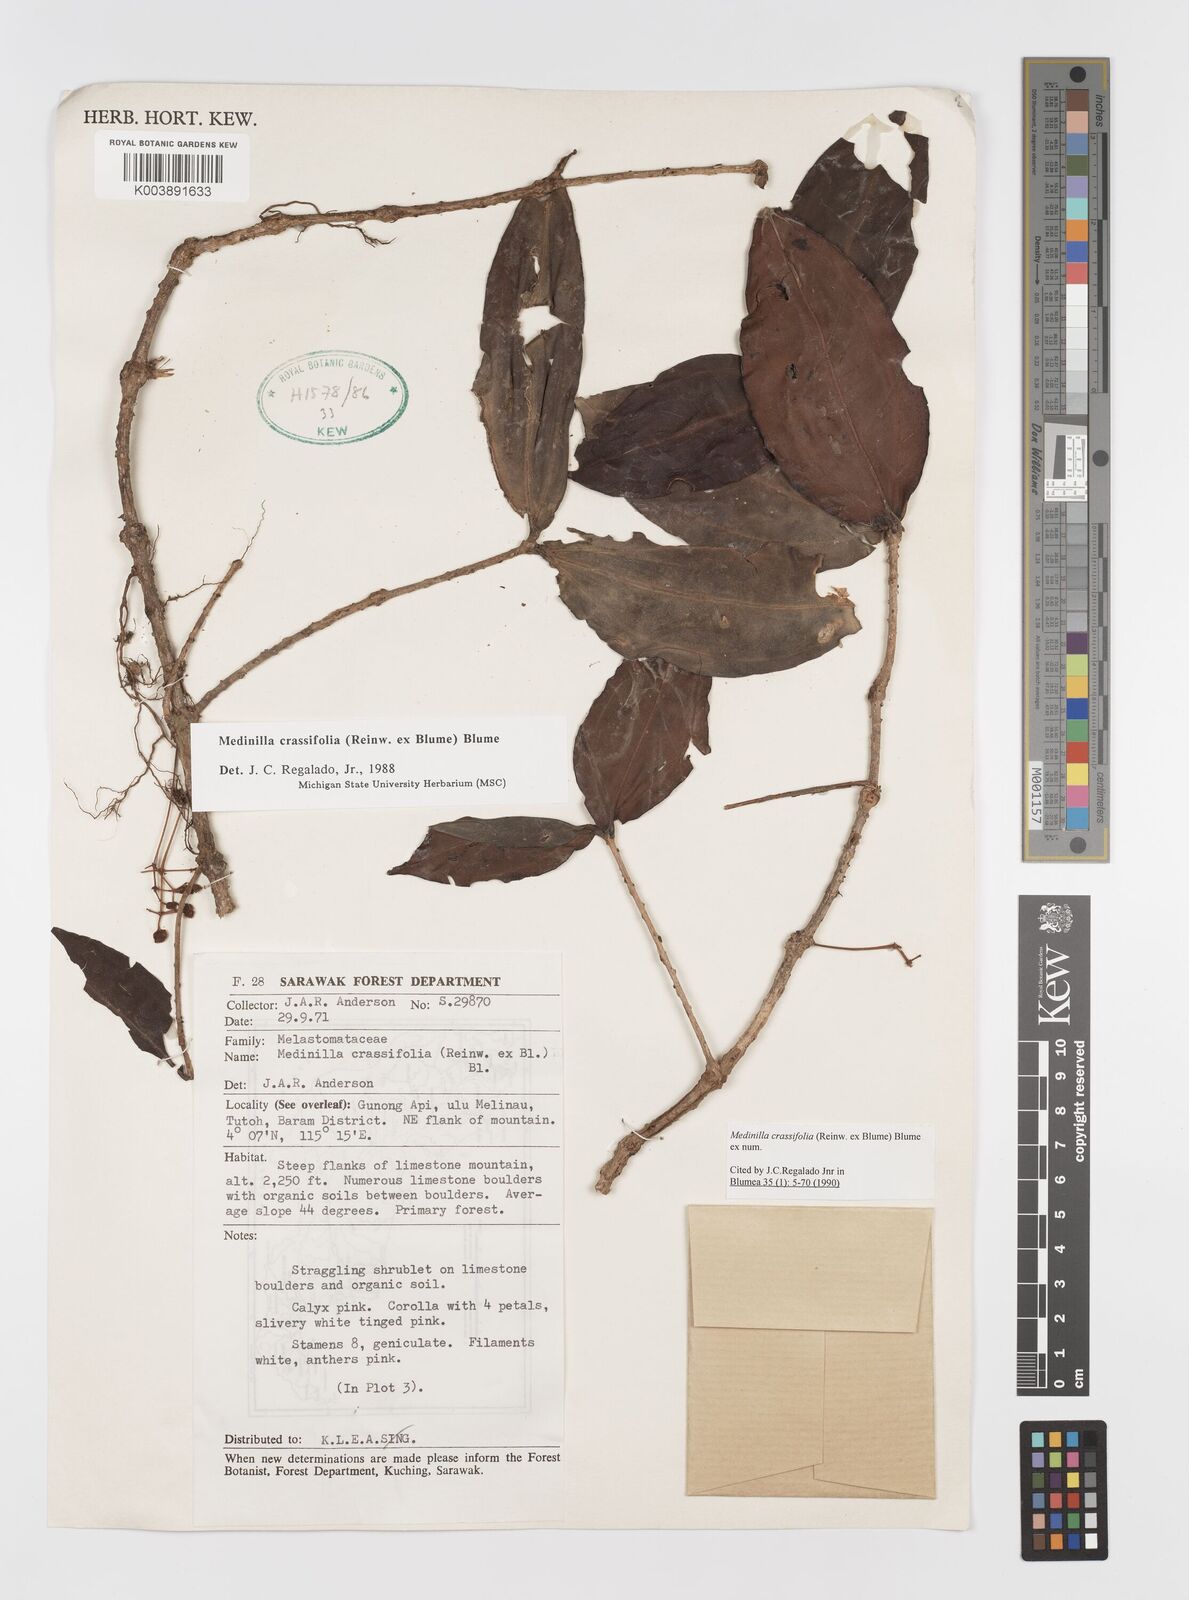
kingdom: Plantae
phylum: Tracheophyta
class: Magnoliopsida
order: Myrtales
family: Melastomataceae
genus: Medinilla
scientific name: Medinilla crassifolia
